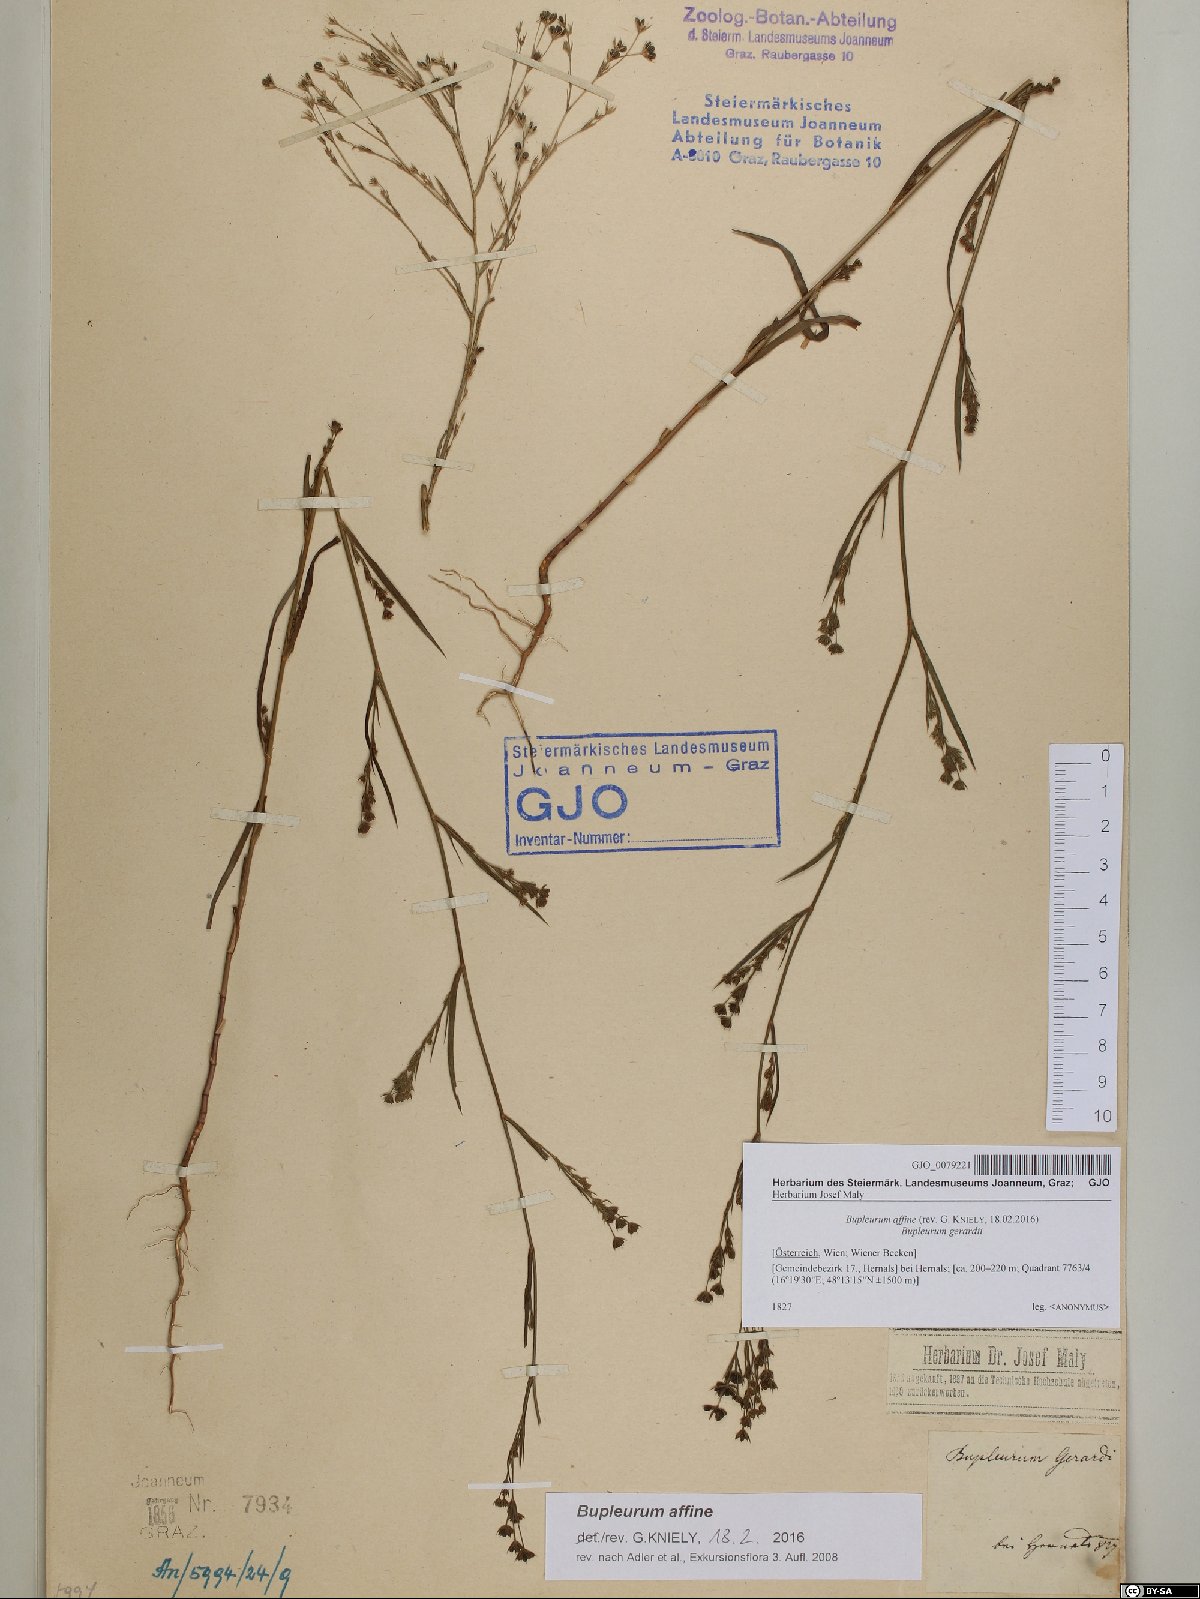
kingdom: Plantae
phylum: Tracheophyta
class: Magnoliopsida
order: Apiales
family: Apiaceae
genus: Bupleurum
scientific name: Bupleurum affine
